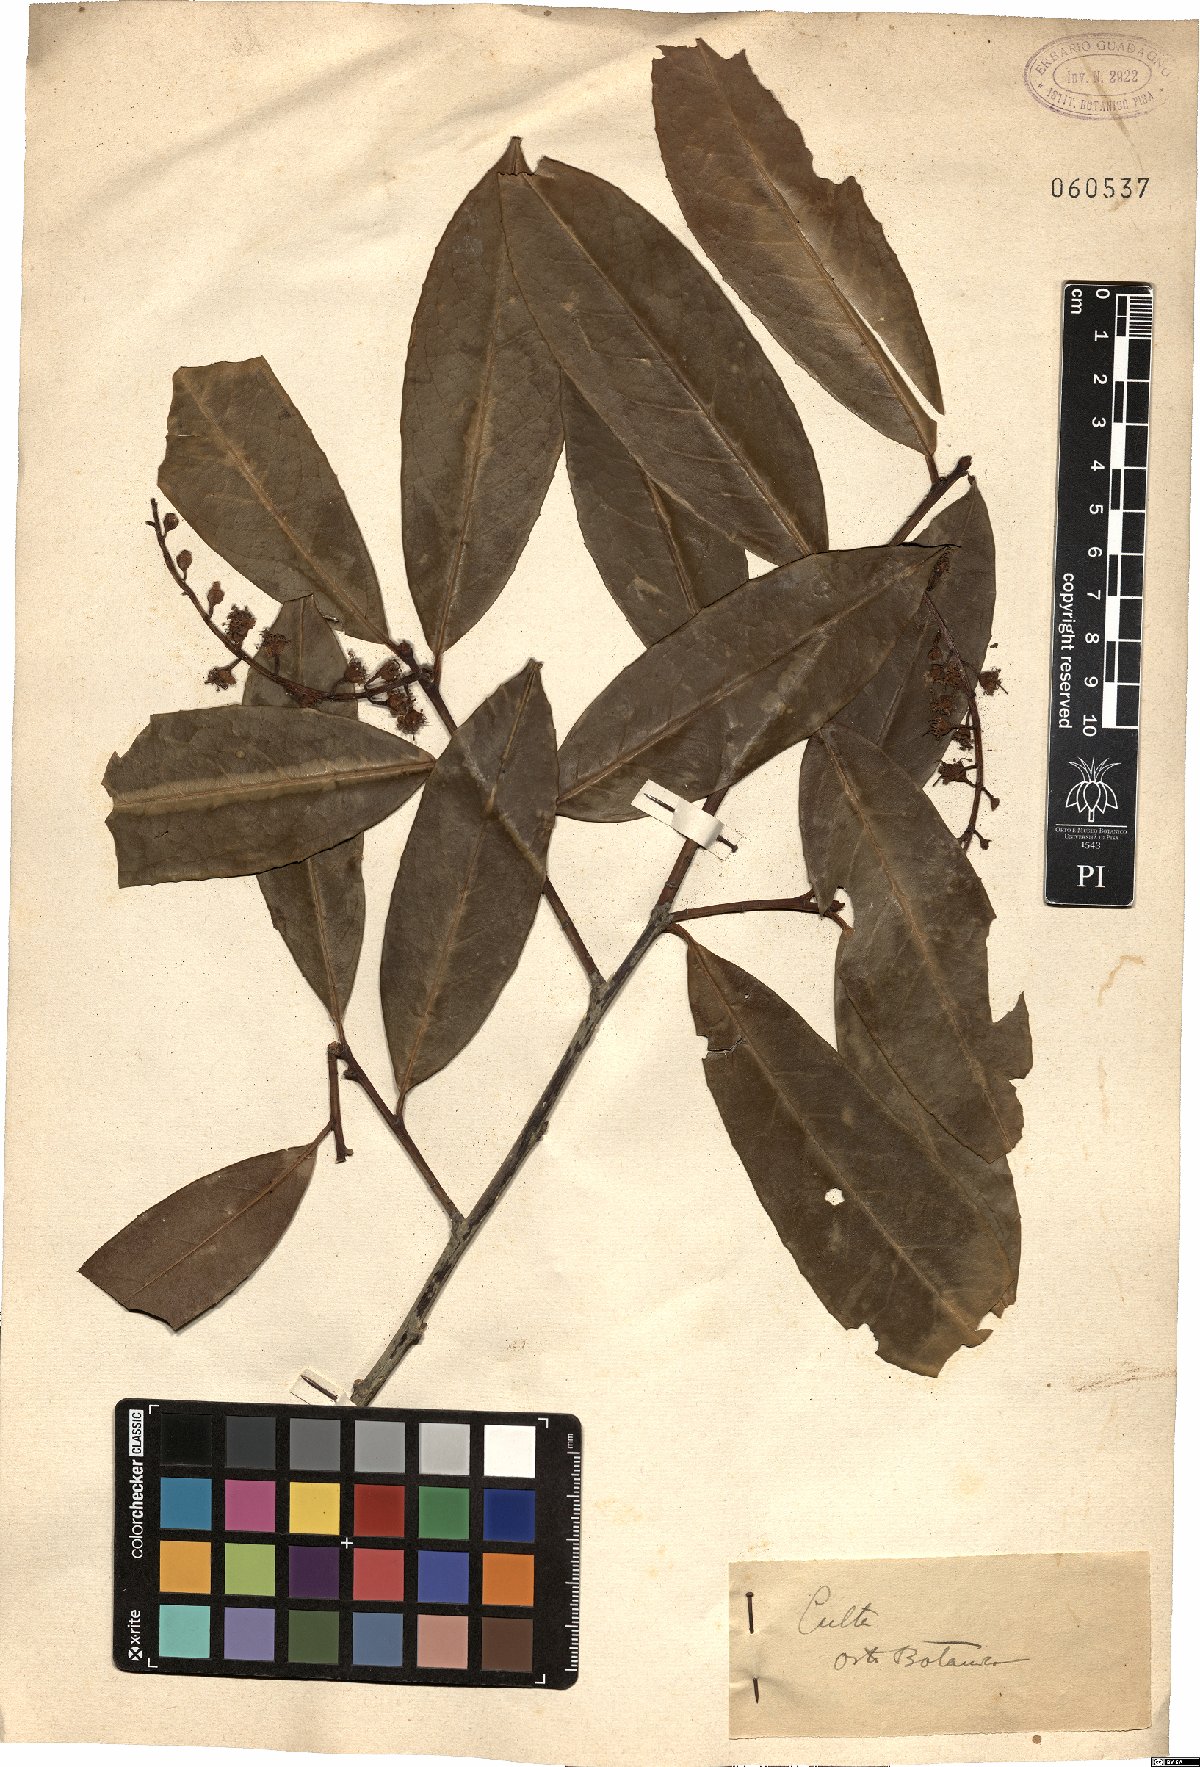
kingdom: Plantae
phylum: Tracheophyta
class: Magnoliopsida
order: Rosales
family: Rosaceae
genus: Prunus
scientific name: Prunus laurocerasus
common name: Cherry laurel
